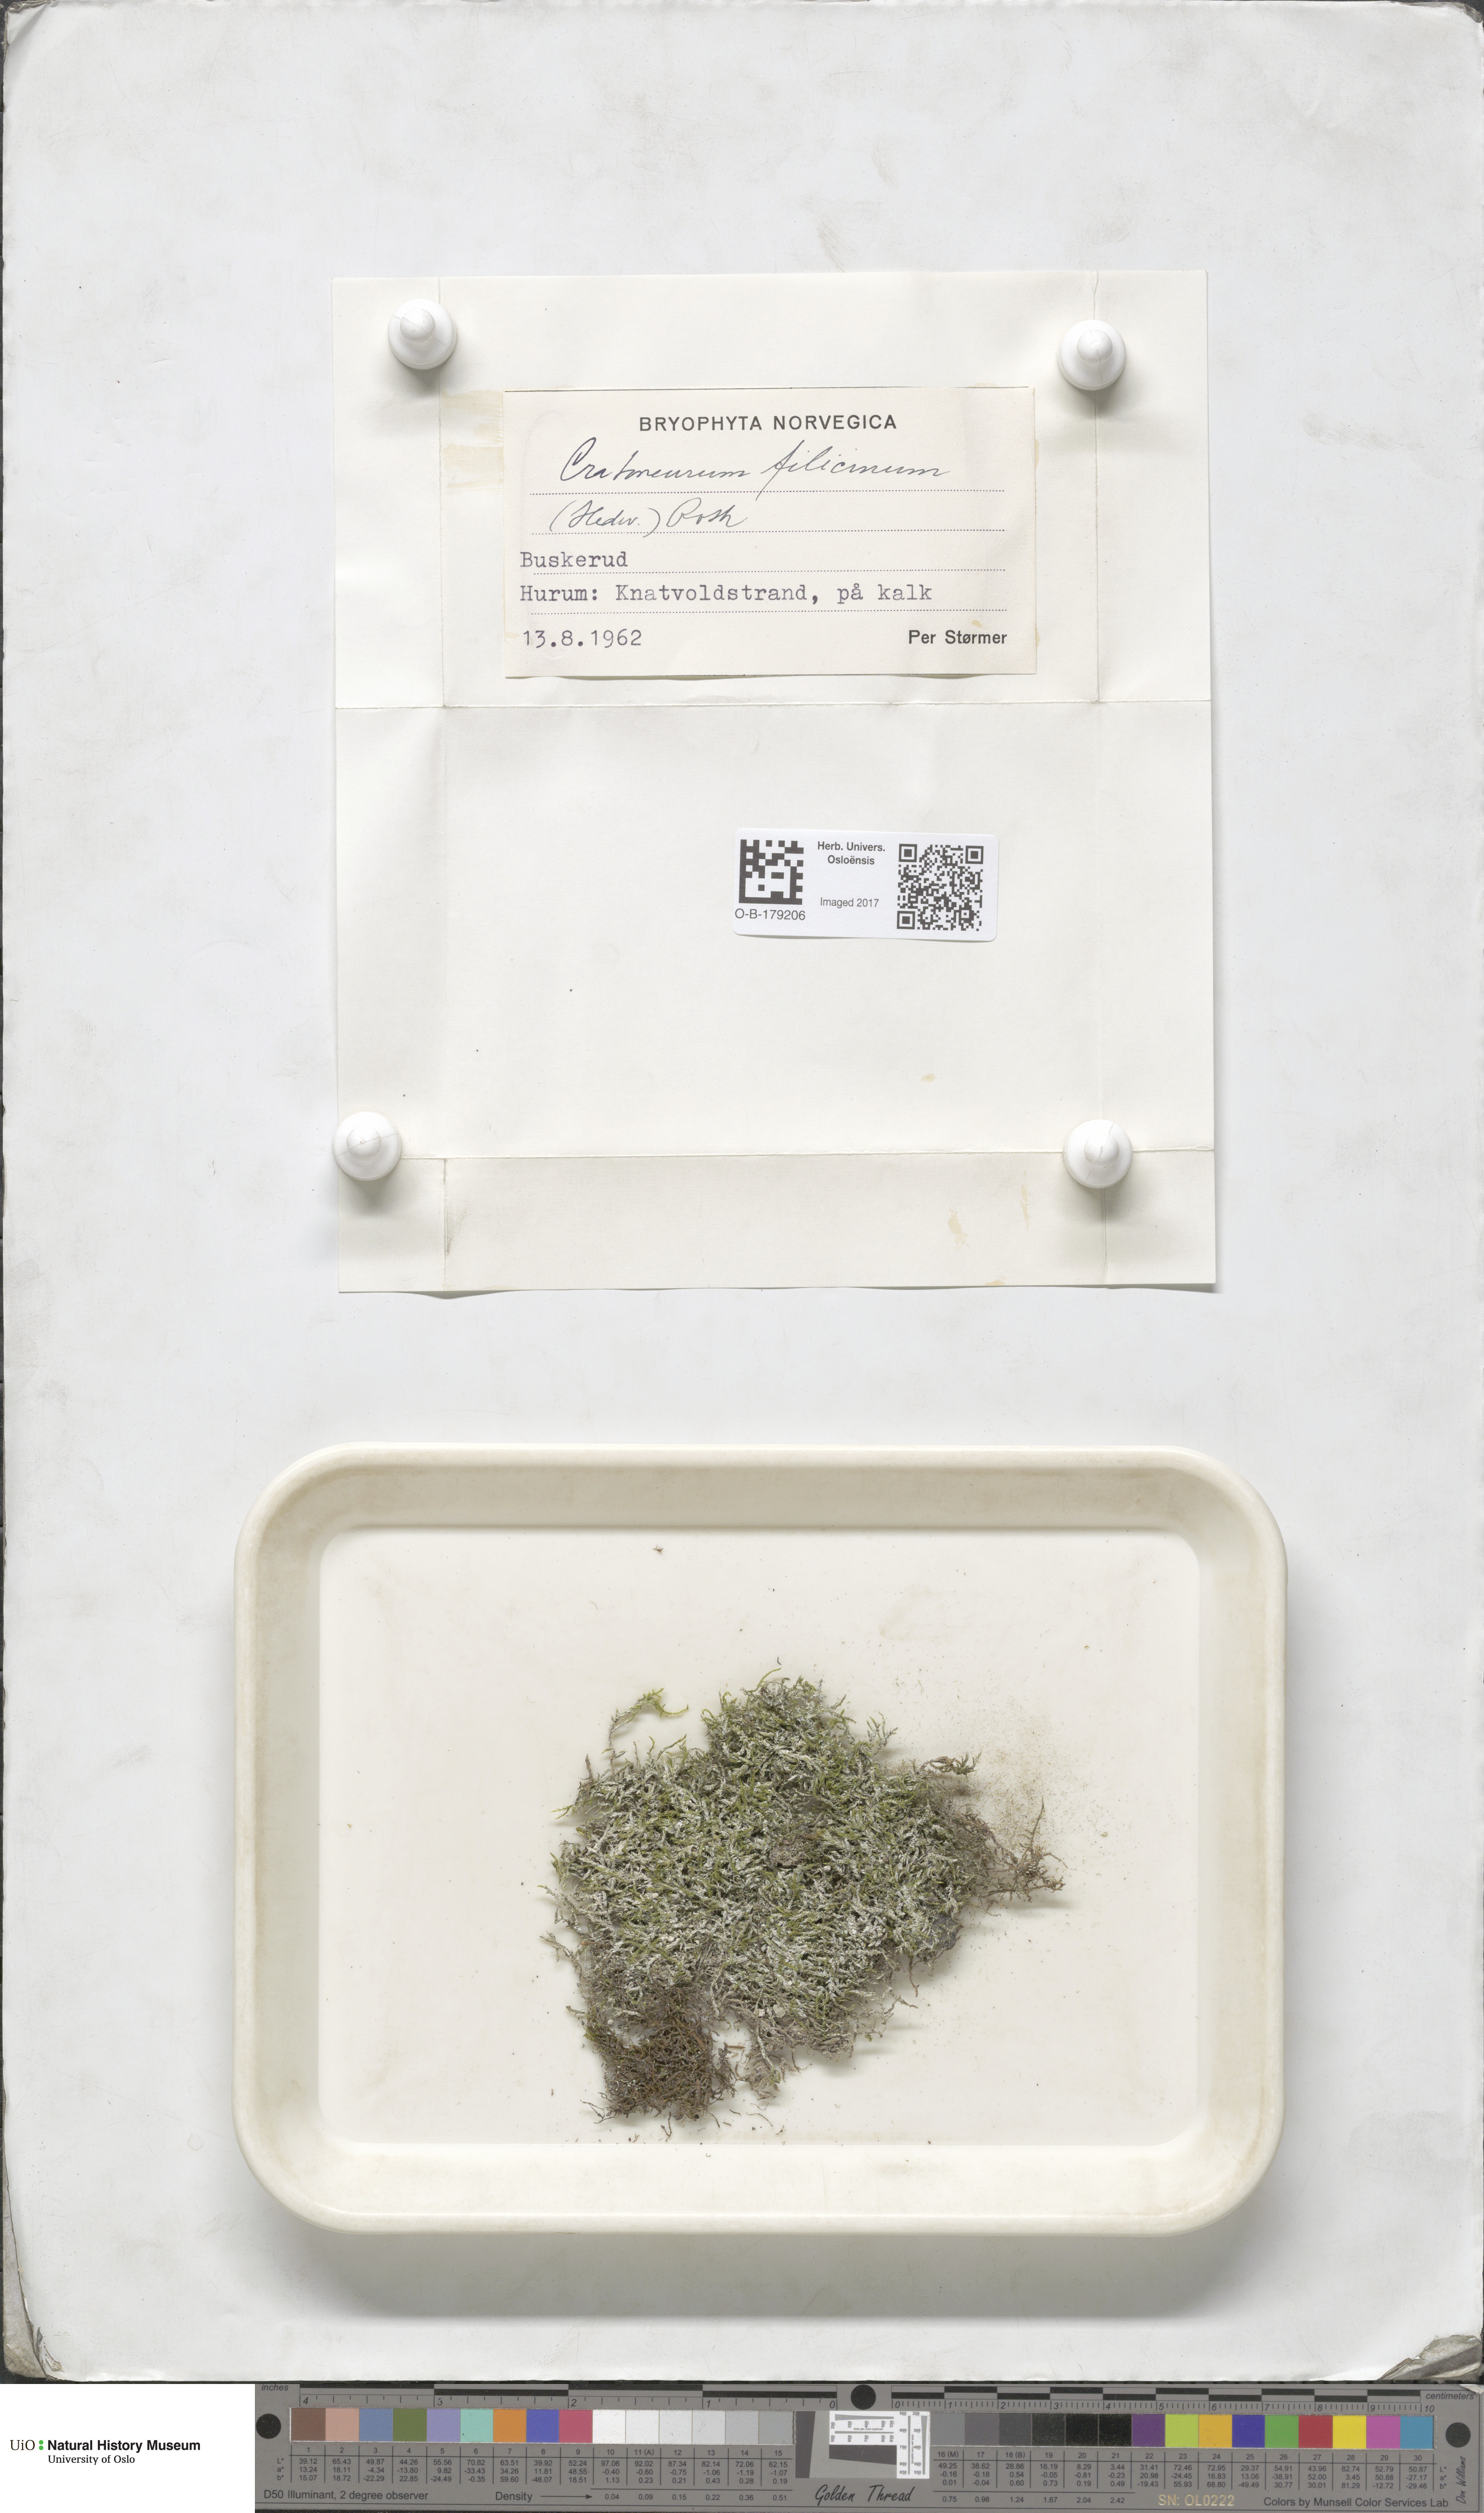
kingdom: Plantae
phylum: Bryophyta
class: Bryopsida
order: Hypnales
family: Amblystegiaceae
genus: Cratoneuron
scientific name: Cratoneuron filicinum
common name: Fern-leaved hook moss
